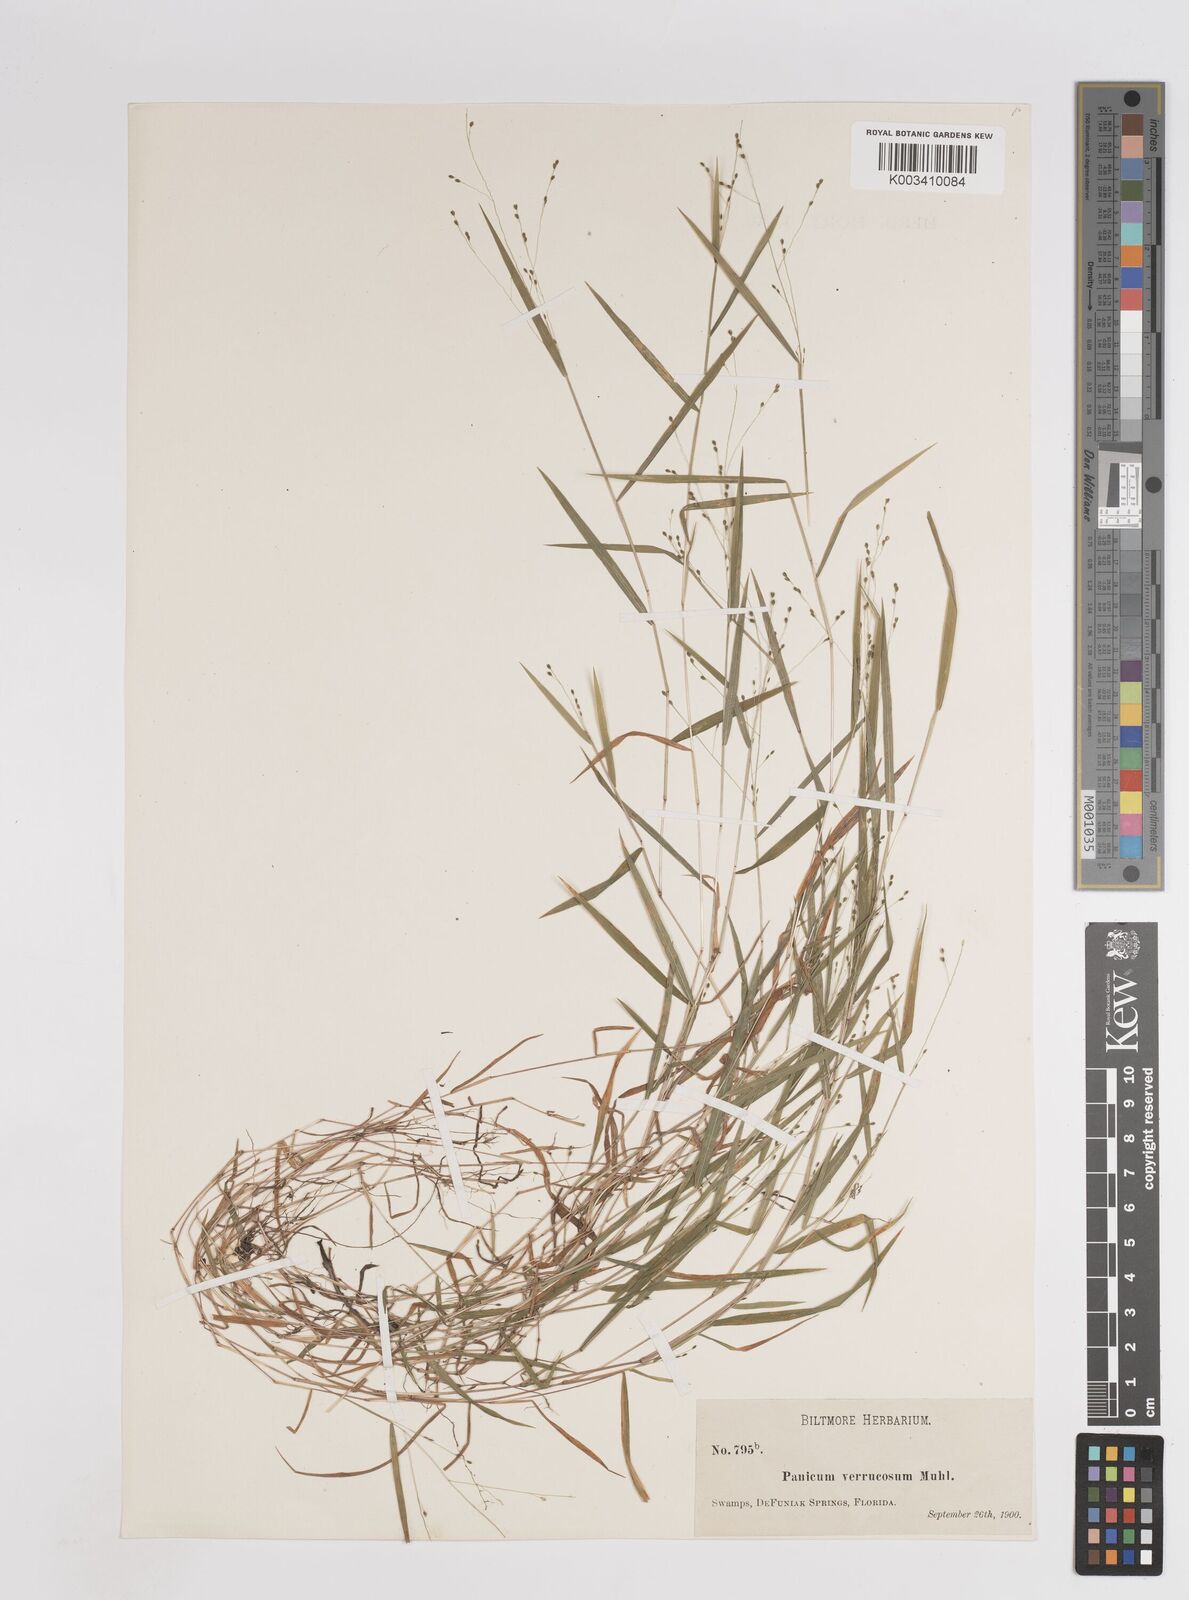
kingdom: Plantae
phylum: Tracheophyta
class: Liliopsida
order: Poales
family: Poaceae
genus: Kellochloa
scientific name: Kellochloa verrucosa
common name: Warty panic grass
